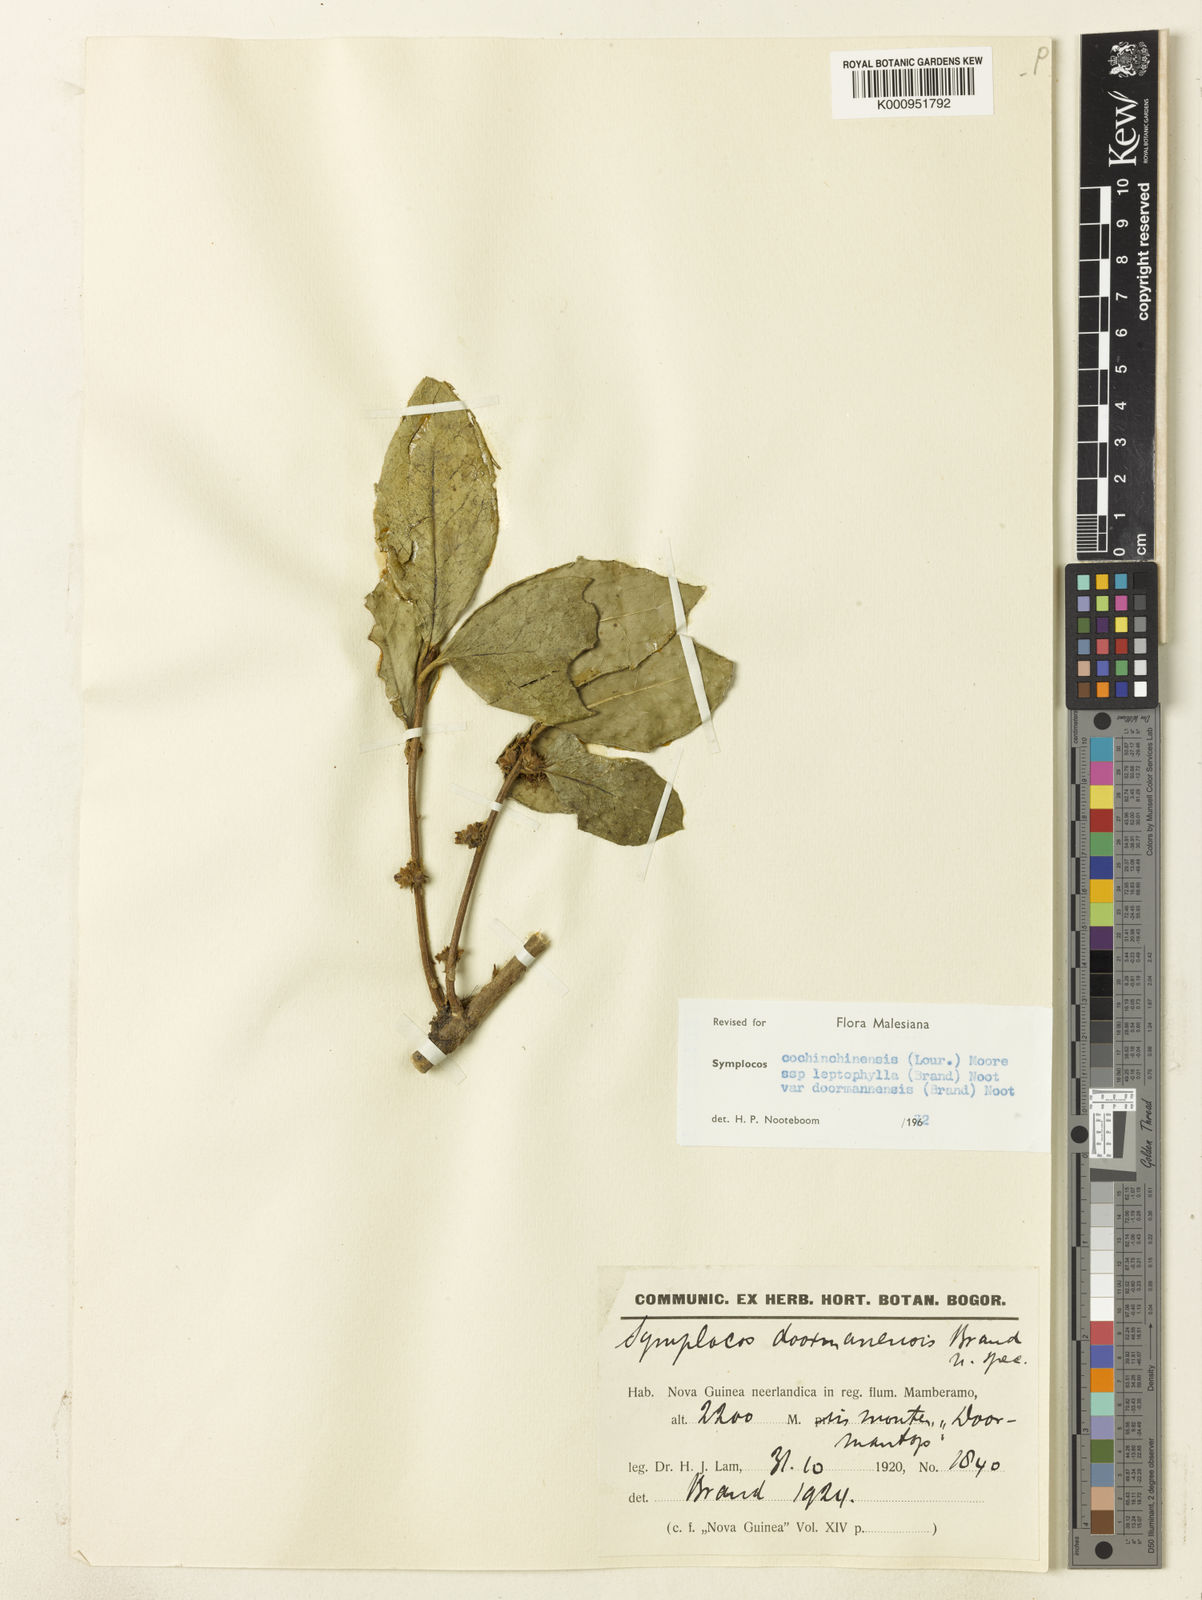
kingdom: Plantae
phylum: Tracheophyta
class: Magnoliopsida
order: Ericales
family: Symplocaceae
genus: Symplocos
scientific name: Symplocos cochinchinensis
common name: Buff hazelwood
